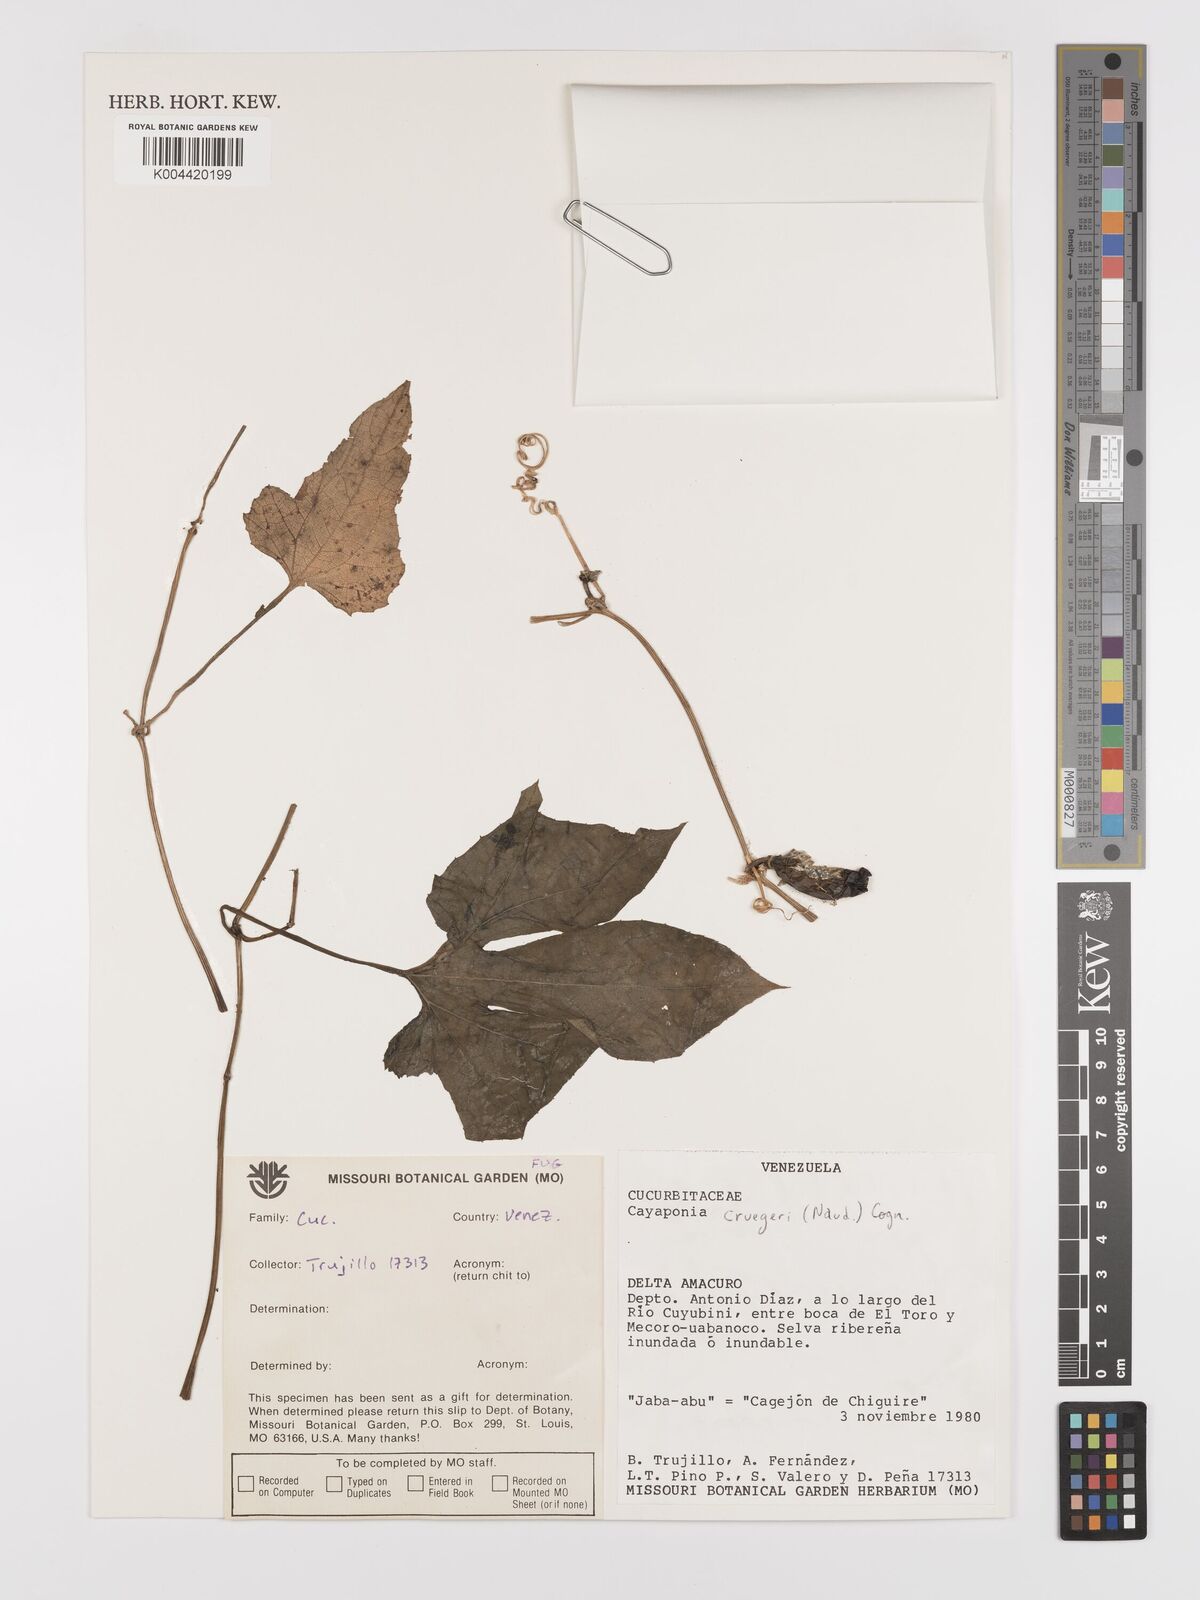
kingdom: Plantae
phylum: Tracheophyta
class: Magnoliopsida
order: Cucurbitales
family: Cucurbitaceae
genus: Cayaponia
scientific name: Cayaponia cruegeri
